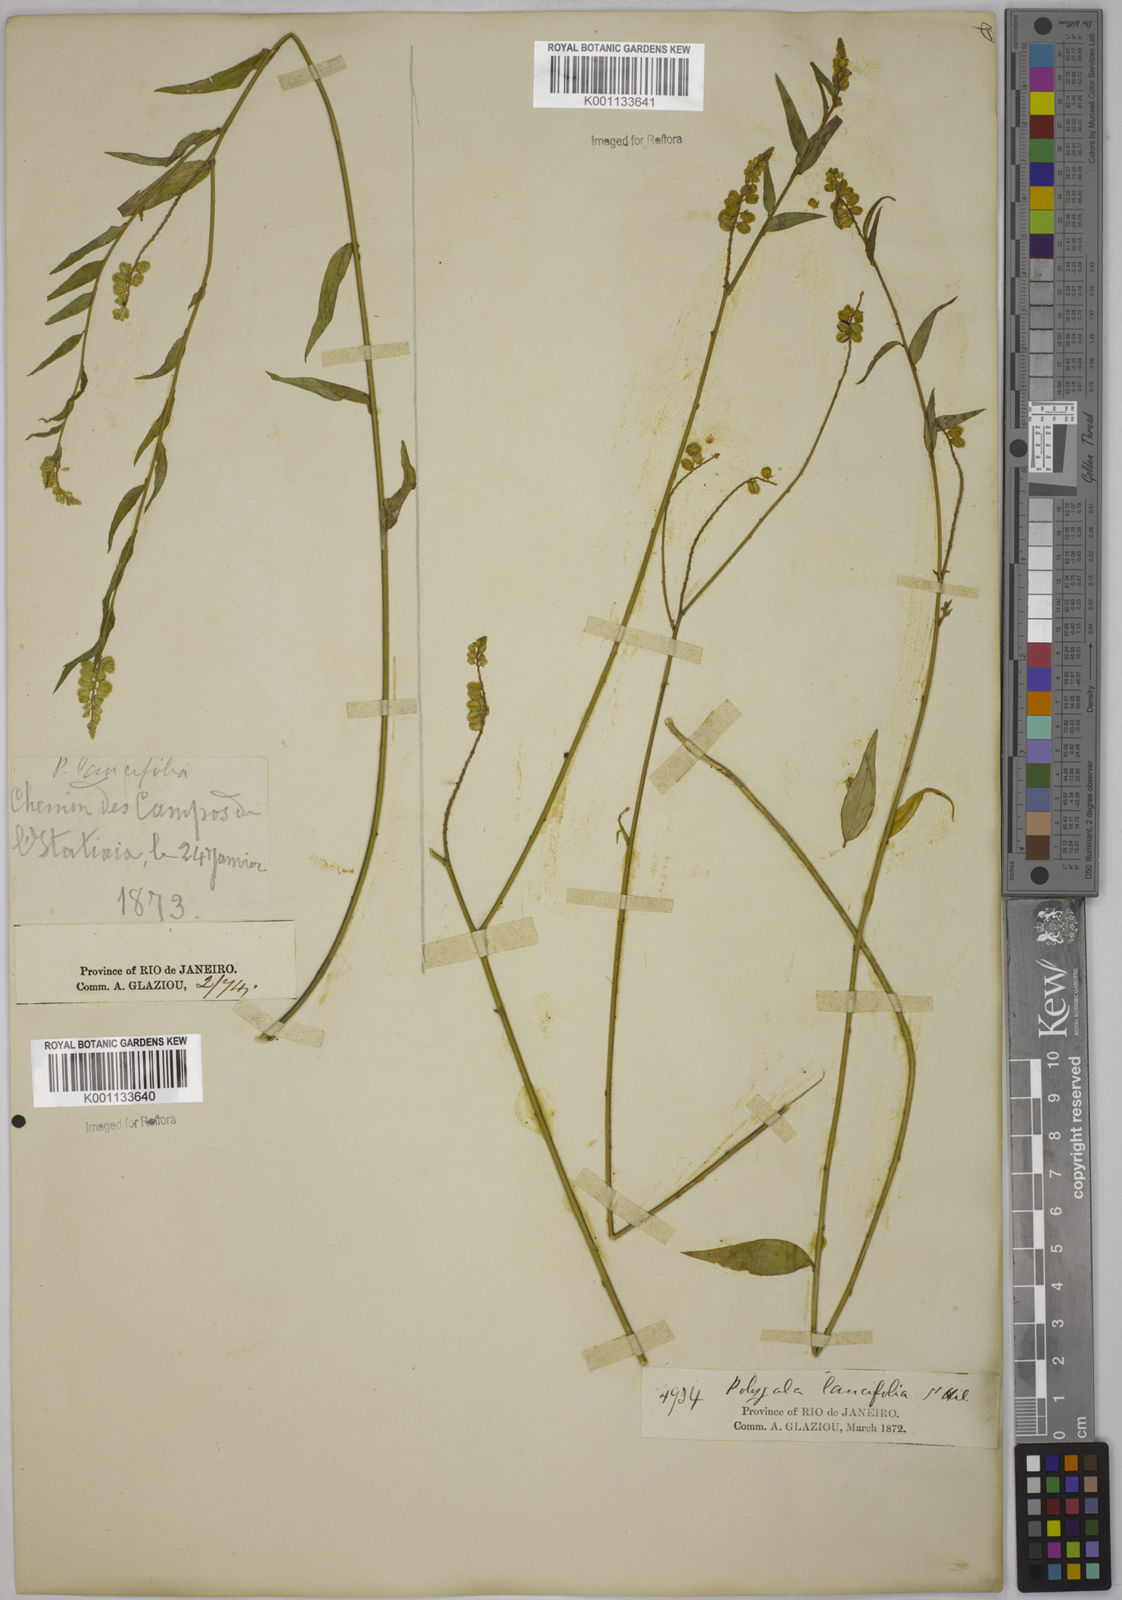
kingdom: Plantae
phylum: Tracheophyta
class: Magnoliopsida
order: Fabales
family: Polygalaceae
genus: Polygala
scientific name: Polygala lancifolia
